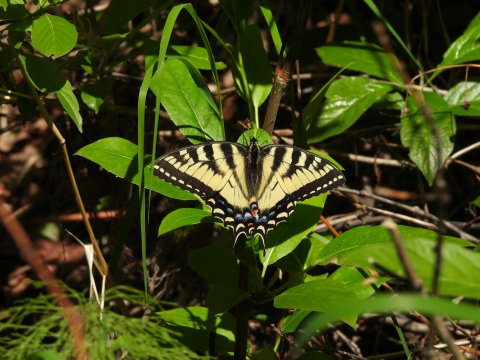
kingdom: Animalia
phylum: Arthropoda
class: Insecta
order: Lepidoptera
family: Papilionidae
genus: Pterourus
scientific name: Pterourus canadensis
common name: Canadian Tiger Swallowtail
